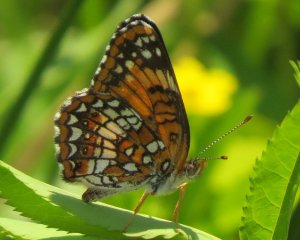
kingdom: Animalia
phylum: Arthropoda
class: Insecta
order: Lepidoptera
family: Nymphalidae
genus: Chlosyne
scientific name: Chlosyne harrisii
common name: Harris's Checkerspot
